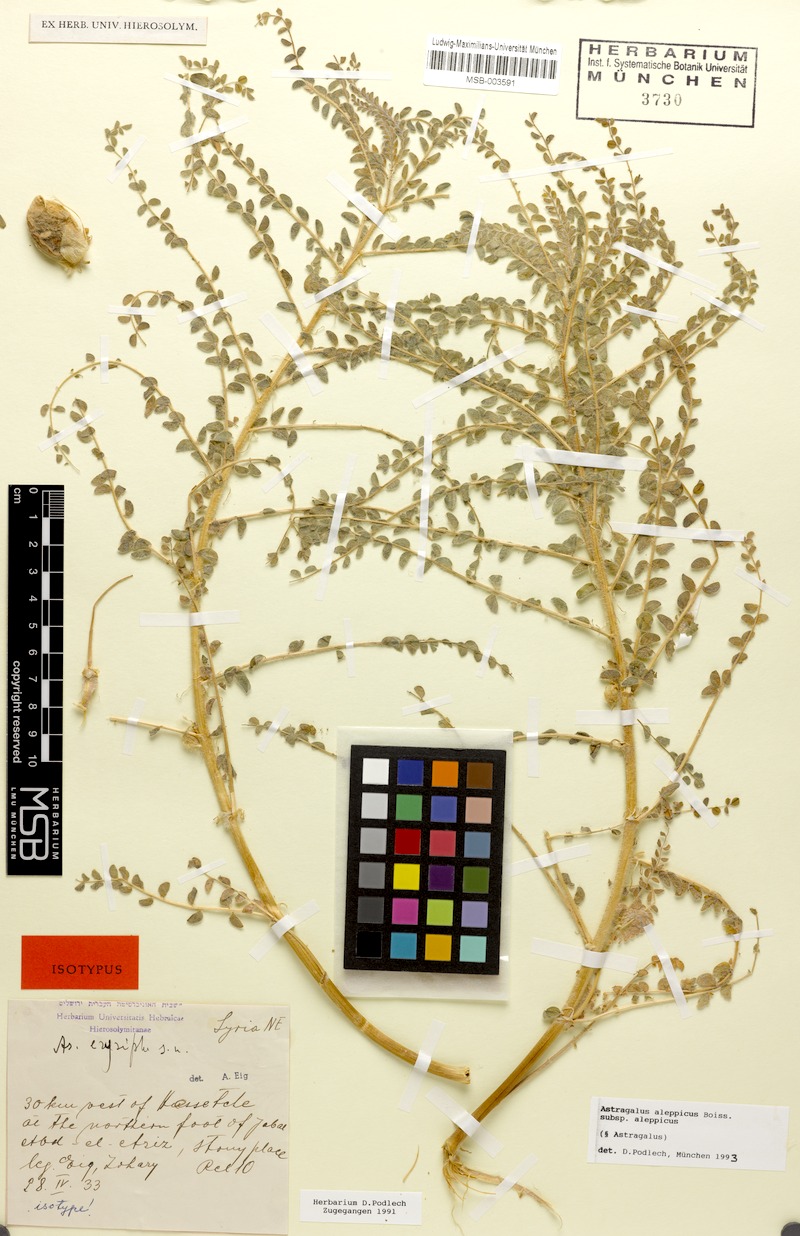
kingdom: Plantae
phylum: Tracheophyta
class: Magnoliopsida
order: Fabales
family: Fabaceae
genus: Astragalus
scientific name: Astragalus aleppicus
